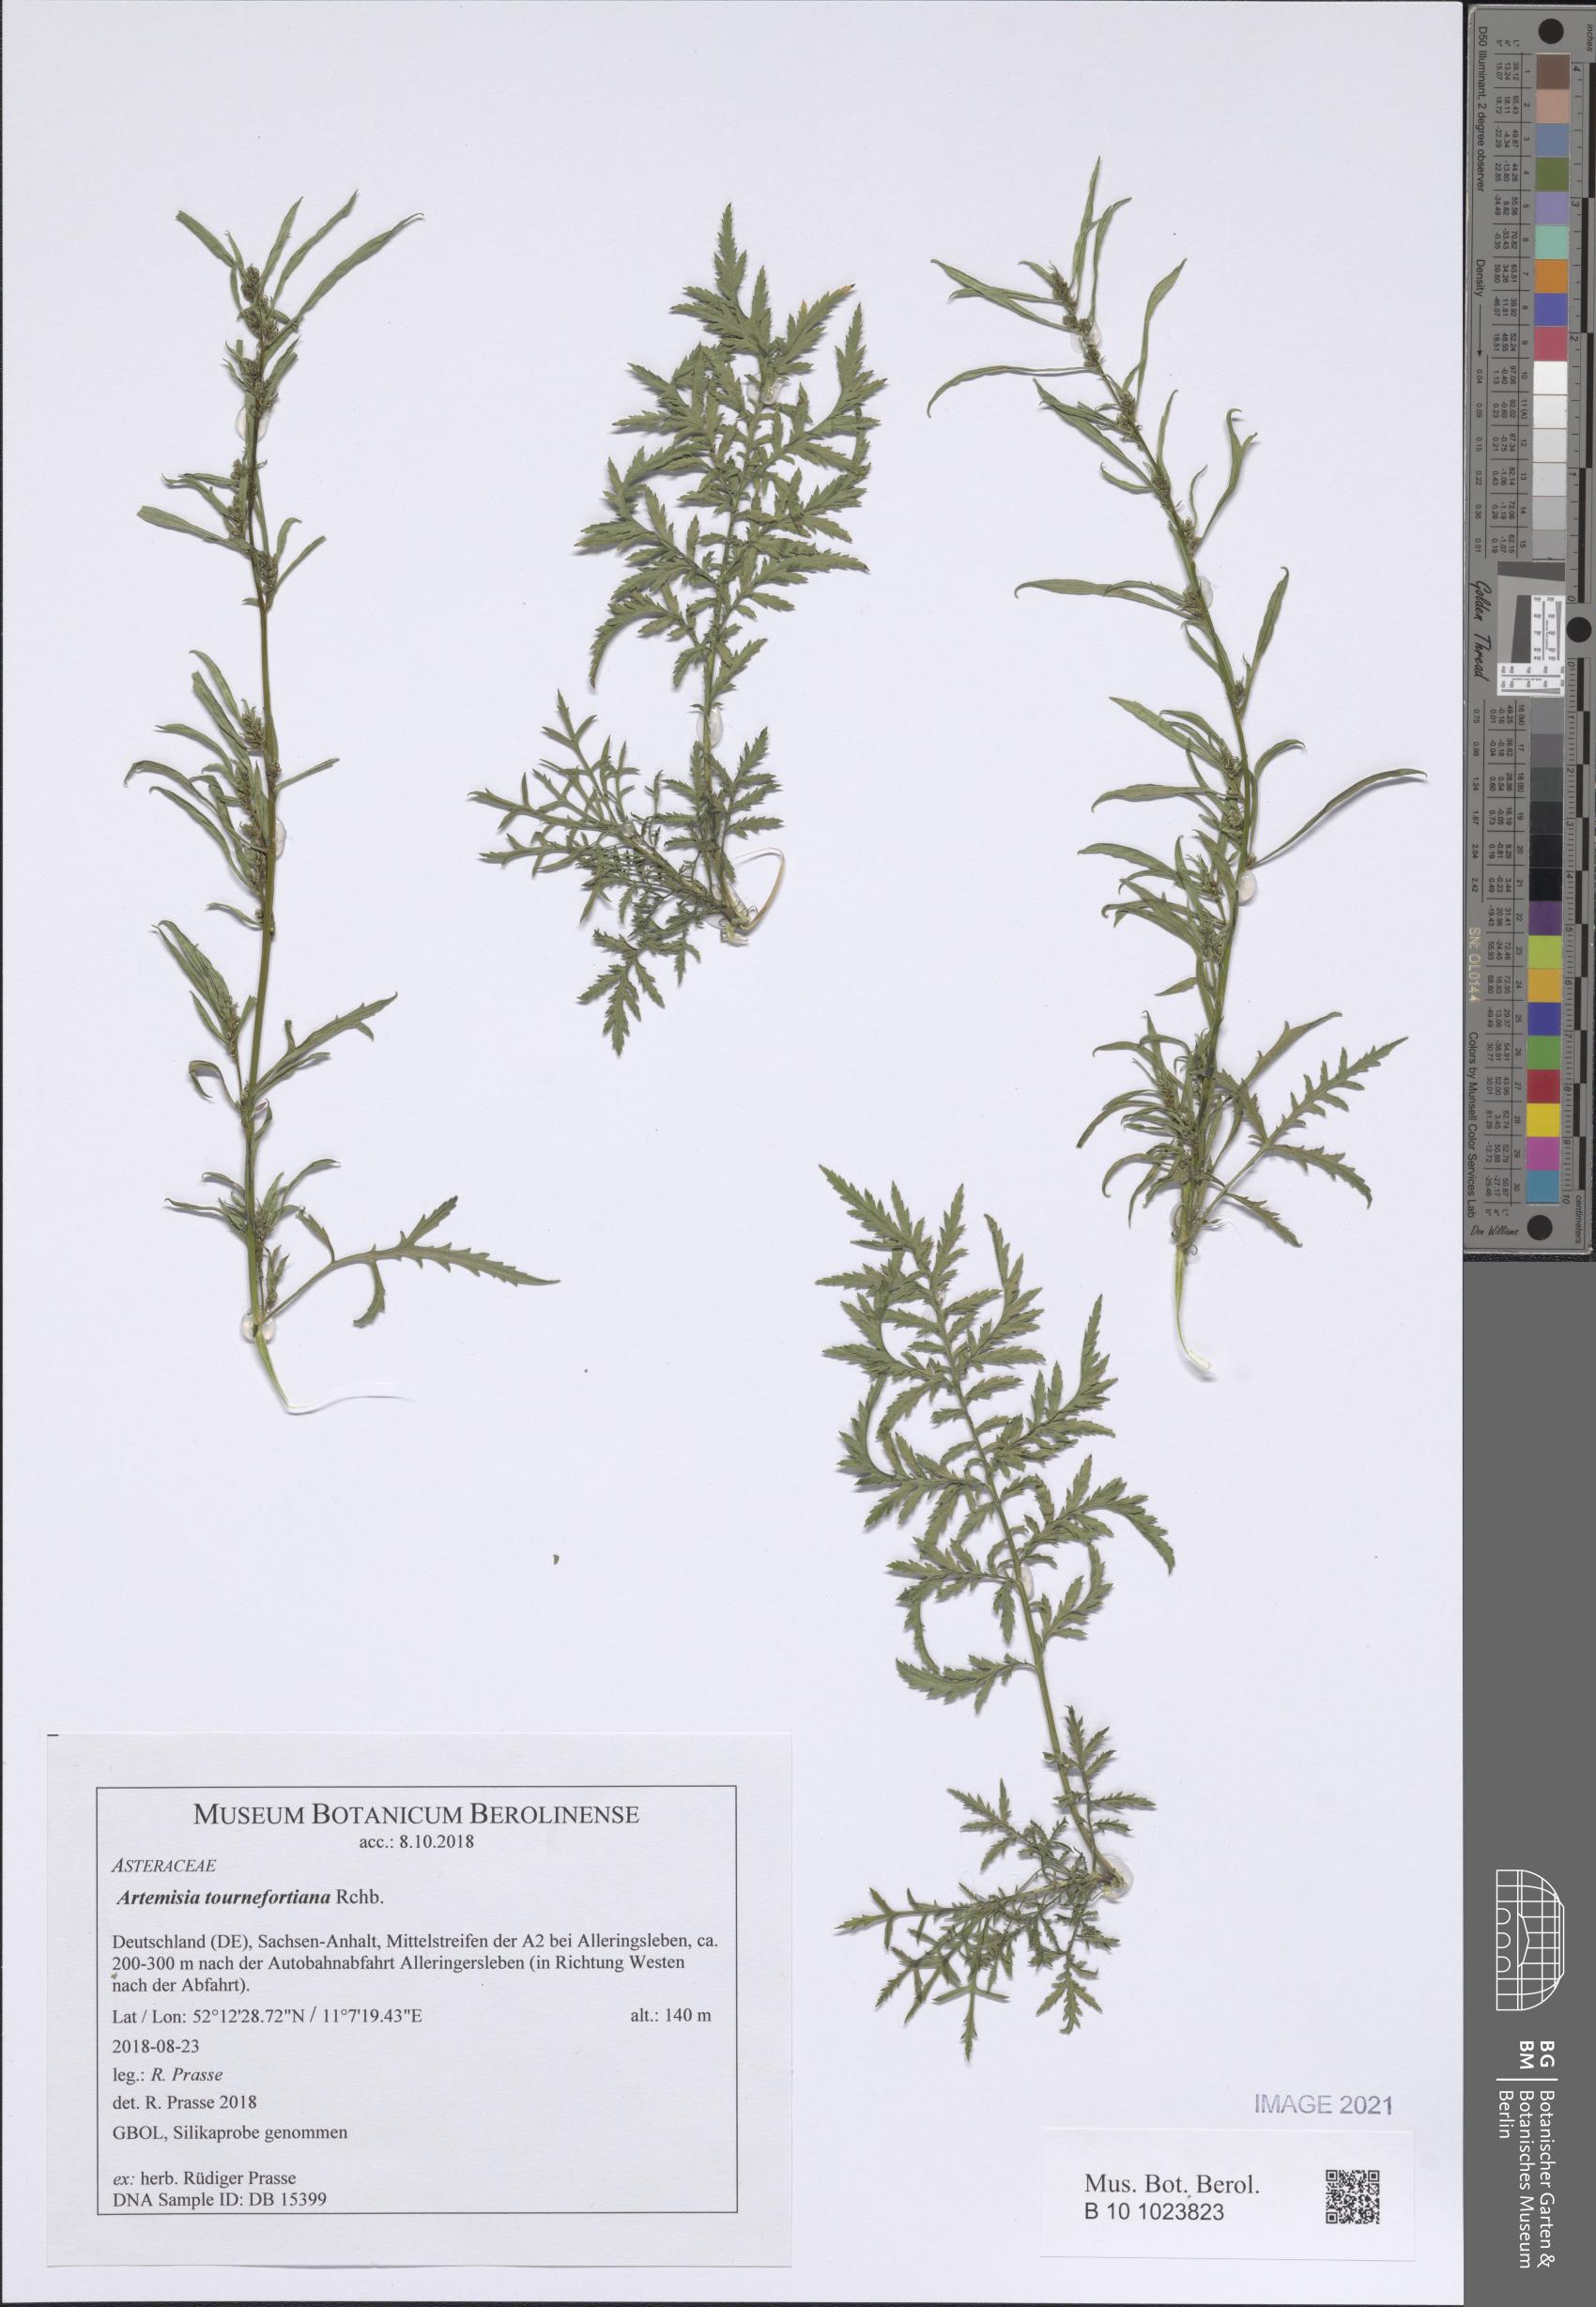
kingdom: Plantae
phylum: Tracheophyta
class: Magnoliopsida
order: Asterales
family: Asteraceae
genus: Artemisia
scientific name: Artemisia tournefortiana
